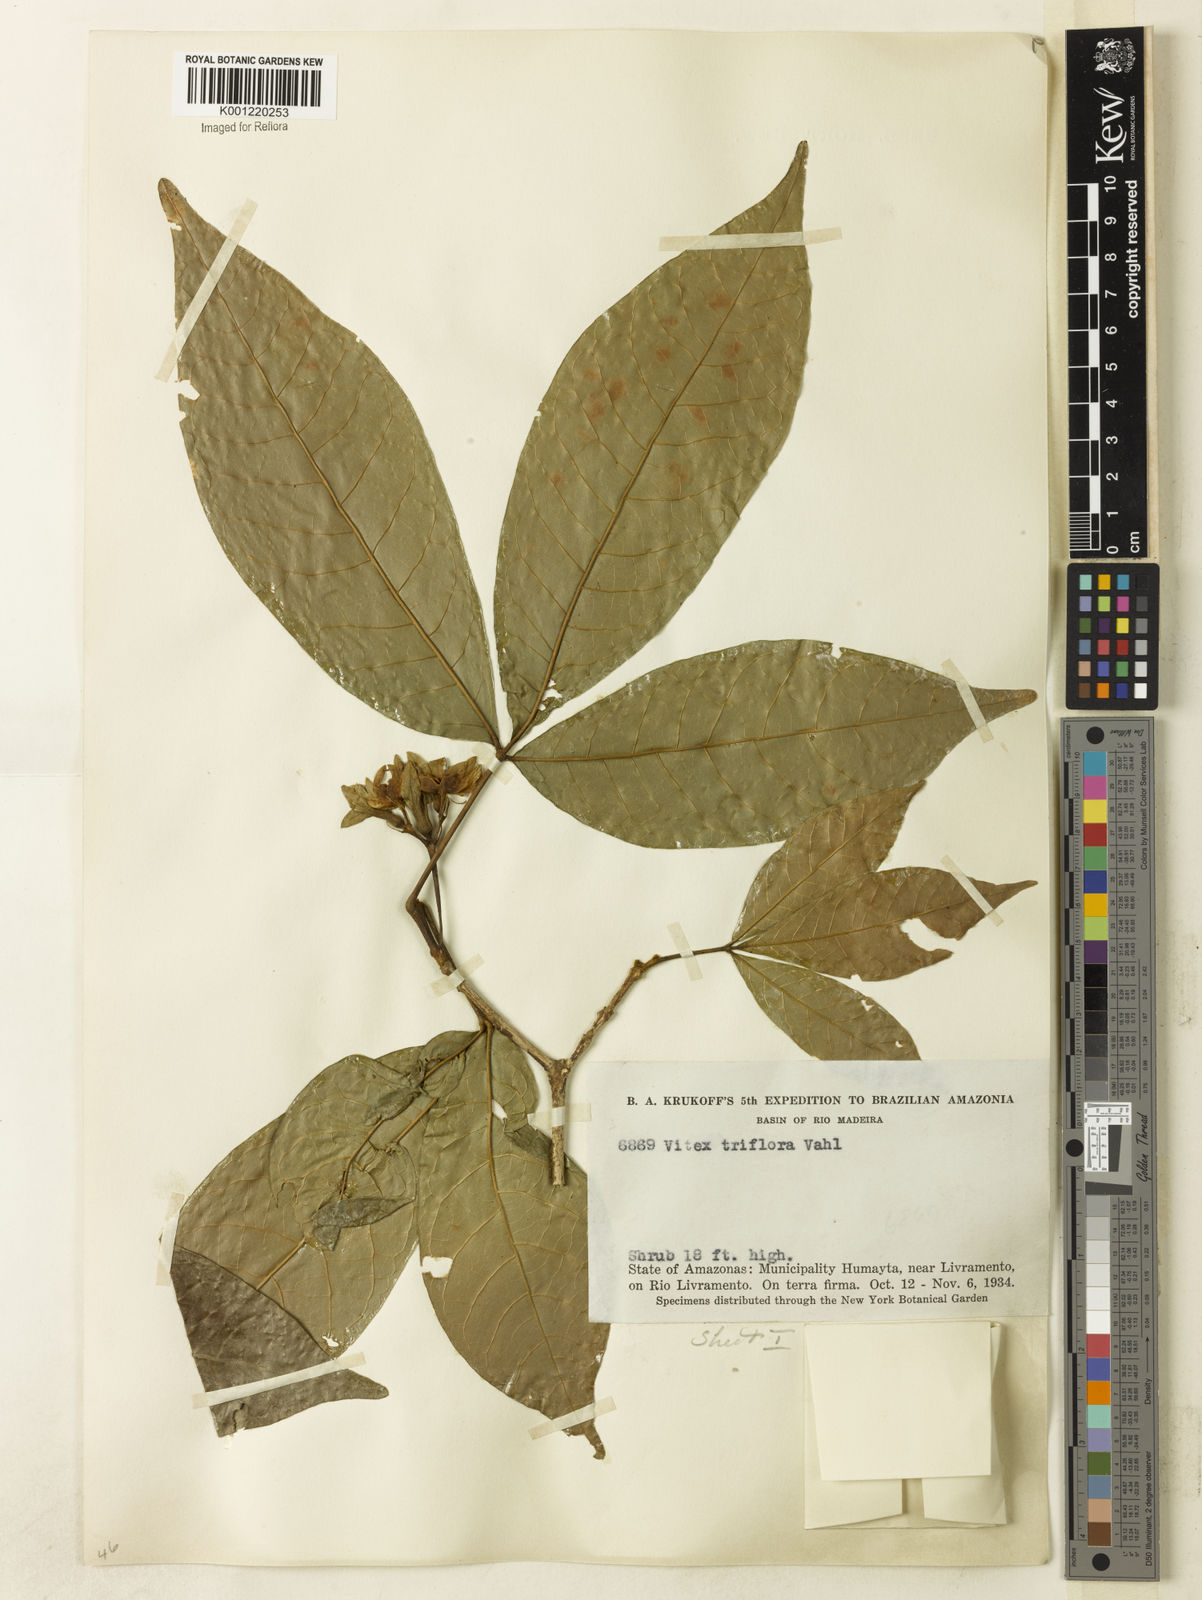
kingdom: Plantae
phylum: Tracheophyta
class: Magnoliopsida
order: Lamiales
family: Lamiaceae
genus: Vitex
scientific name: Vitex triflora
